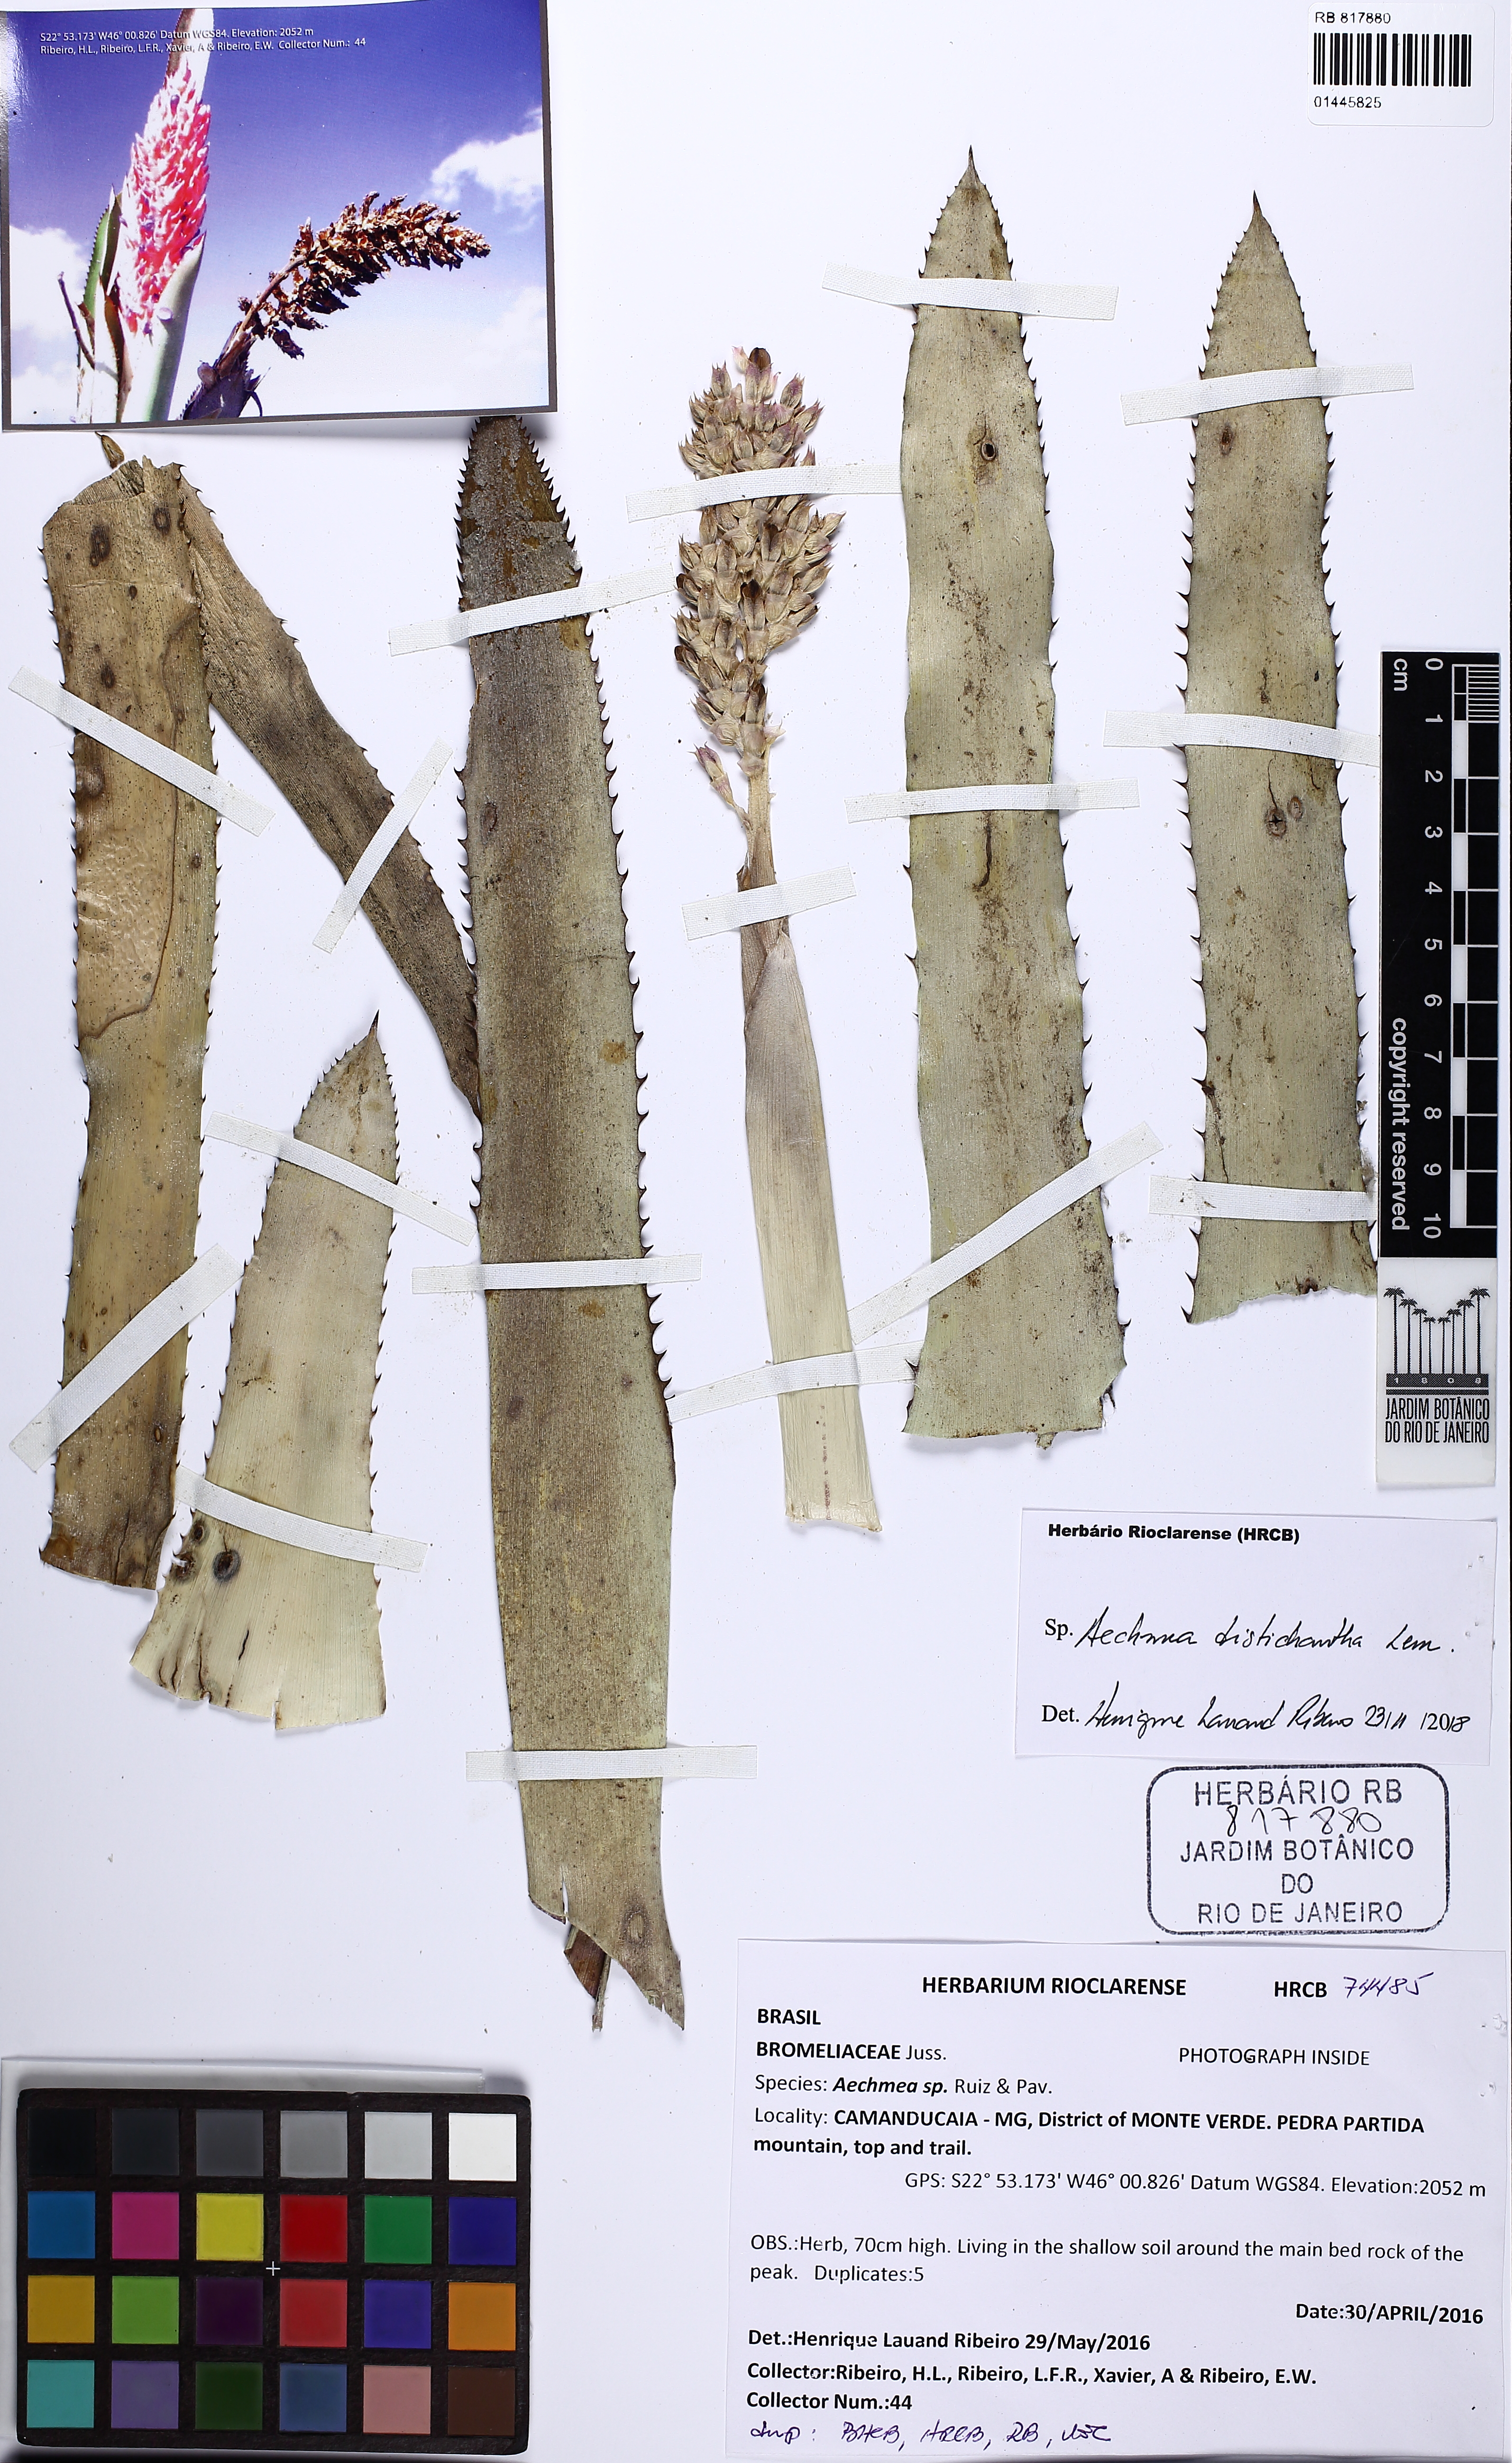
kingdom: Plantae
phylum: Tracheophyta
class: Liliopsida
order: Poales
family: Bromeliaceae
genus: Aechmea
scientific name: Aechmea distichantha
